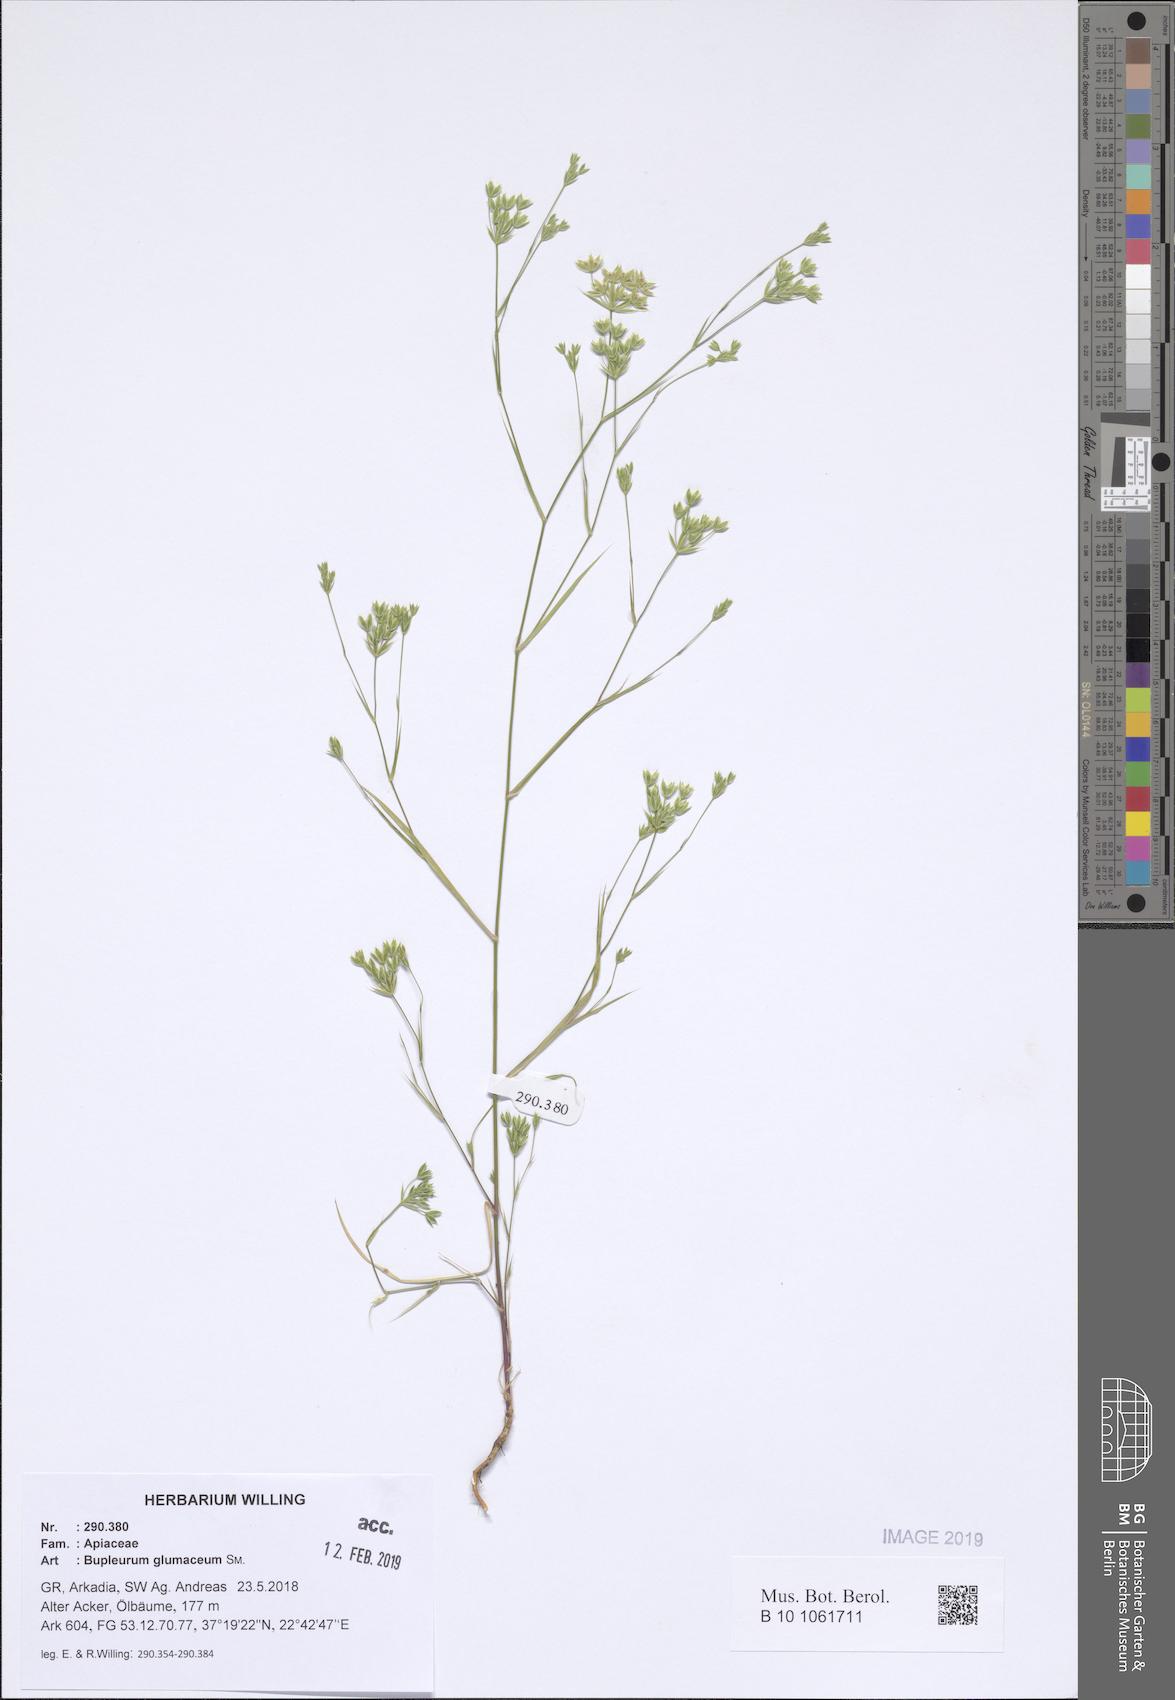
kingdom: Plantae
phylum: Tracheophyta
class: Magnoliopsida
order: Apiales
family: Apiaceae
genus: Bupleurum
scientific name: Bupleurum glumaceum
